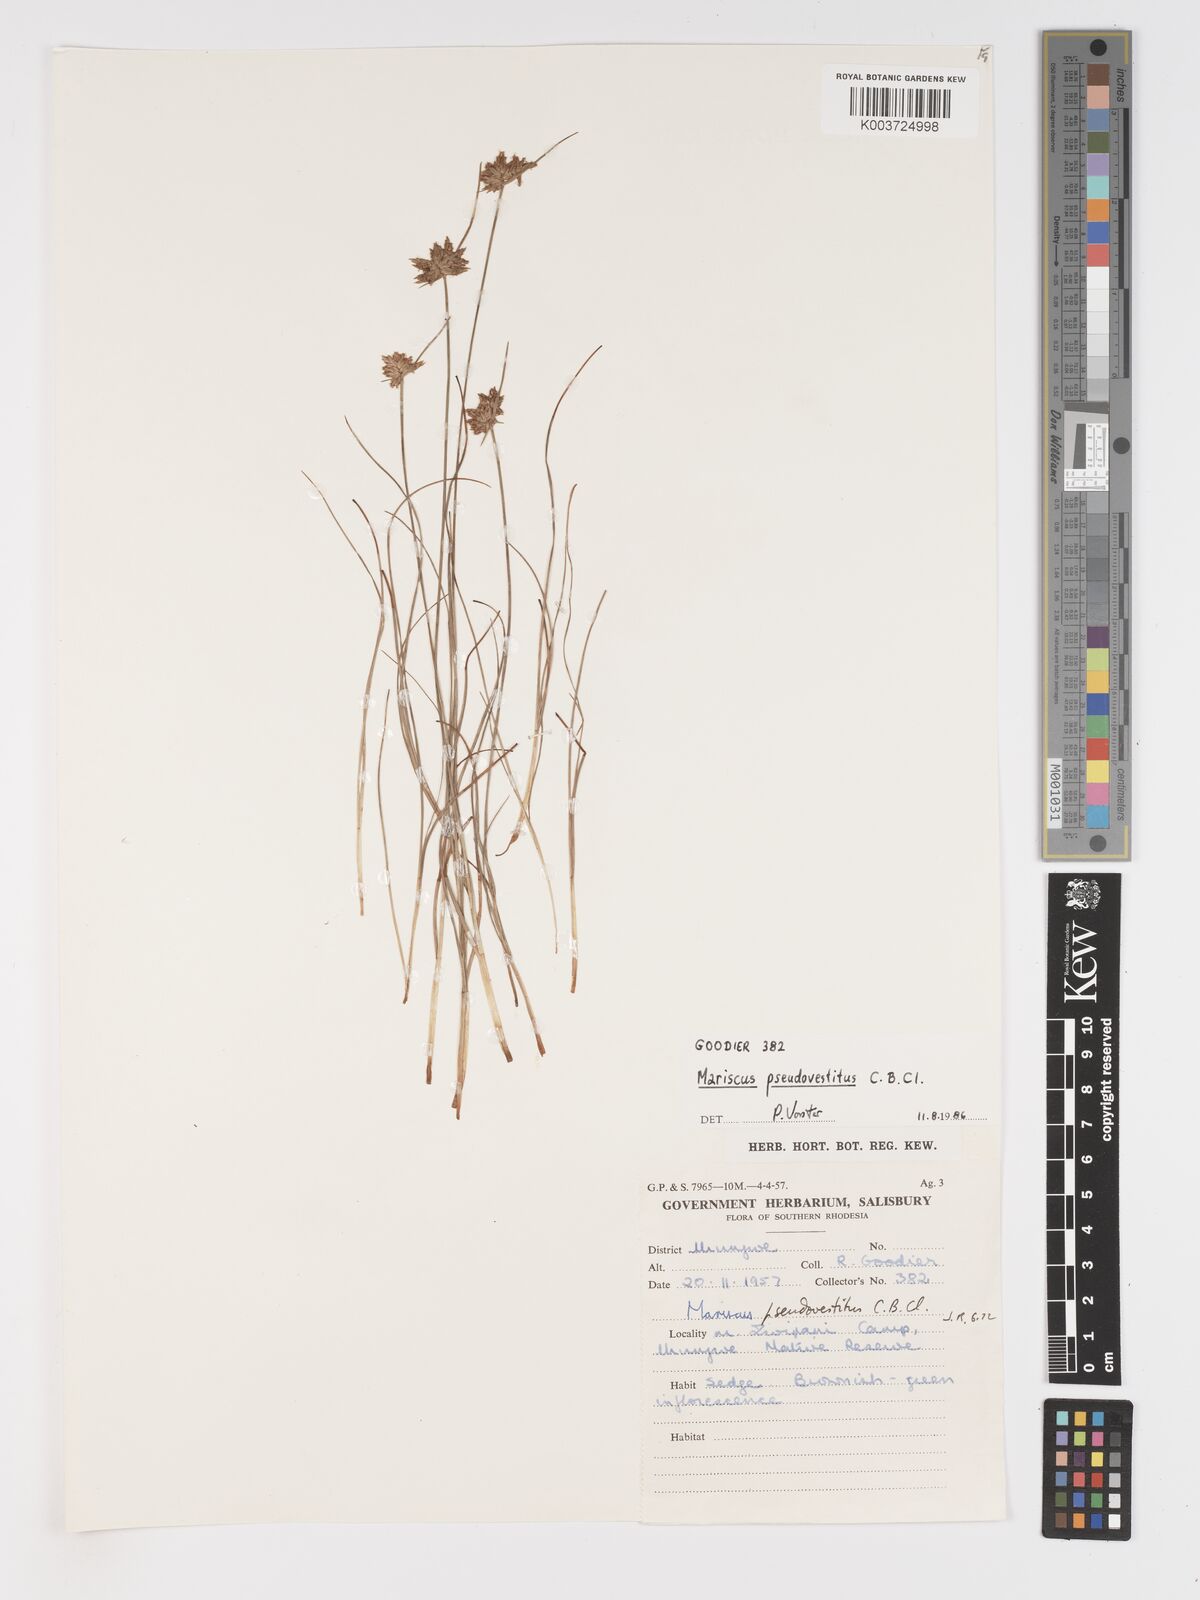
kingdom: Plantae
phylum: Tracheophyta
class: Liliopsida
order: Poales
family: Cyperaceae
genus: Cyperus
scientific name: Cyperus pseudovestitus
